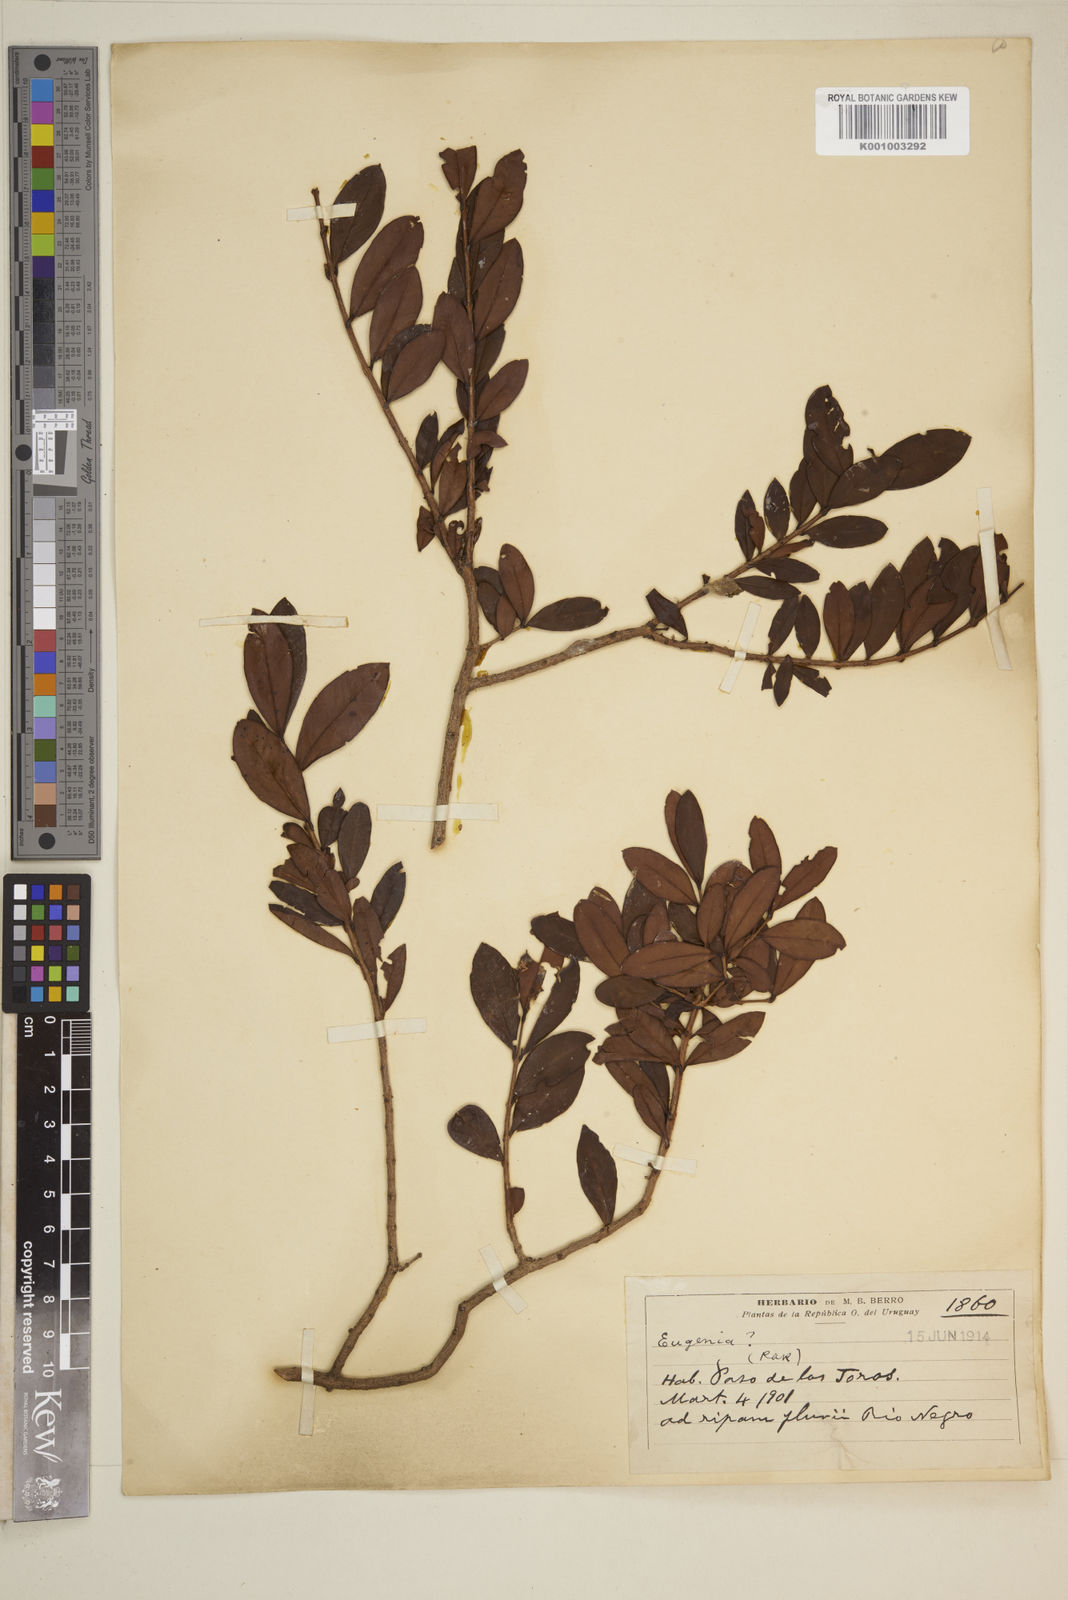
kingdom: Plantae
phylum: Tracheophyta
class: Magnoliopsida
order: Myrtales
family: Myrtaceae
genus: Eugenia
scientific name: Eugenia
